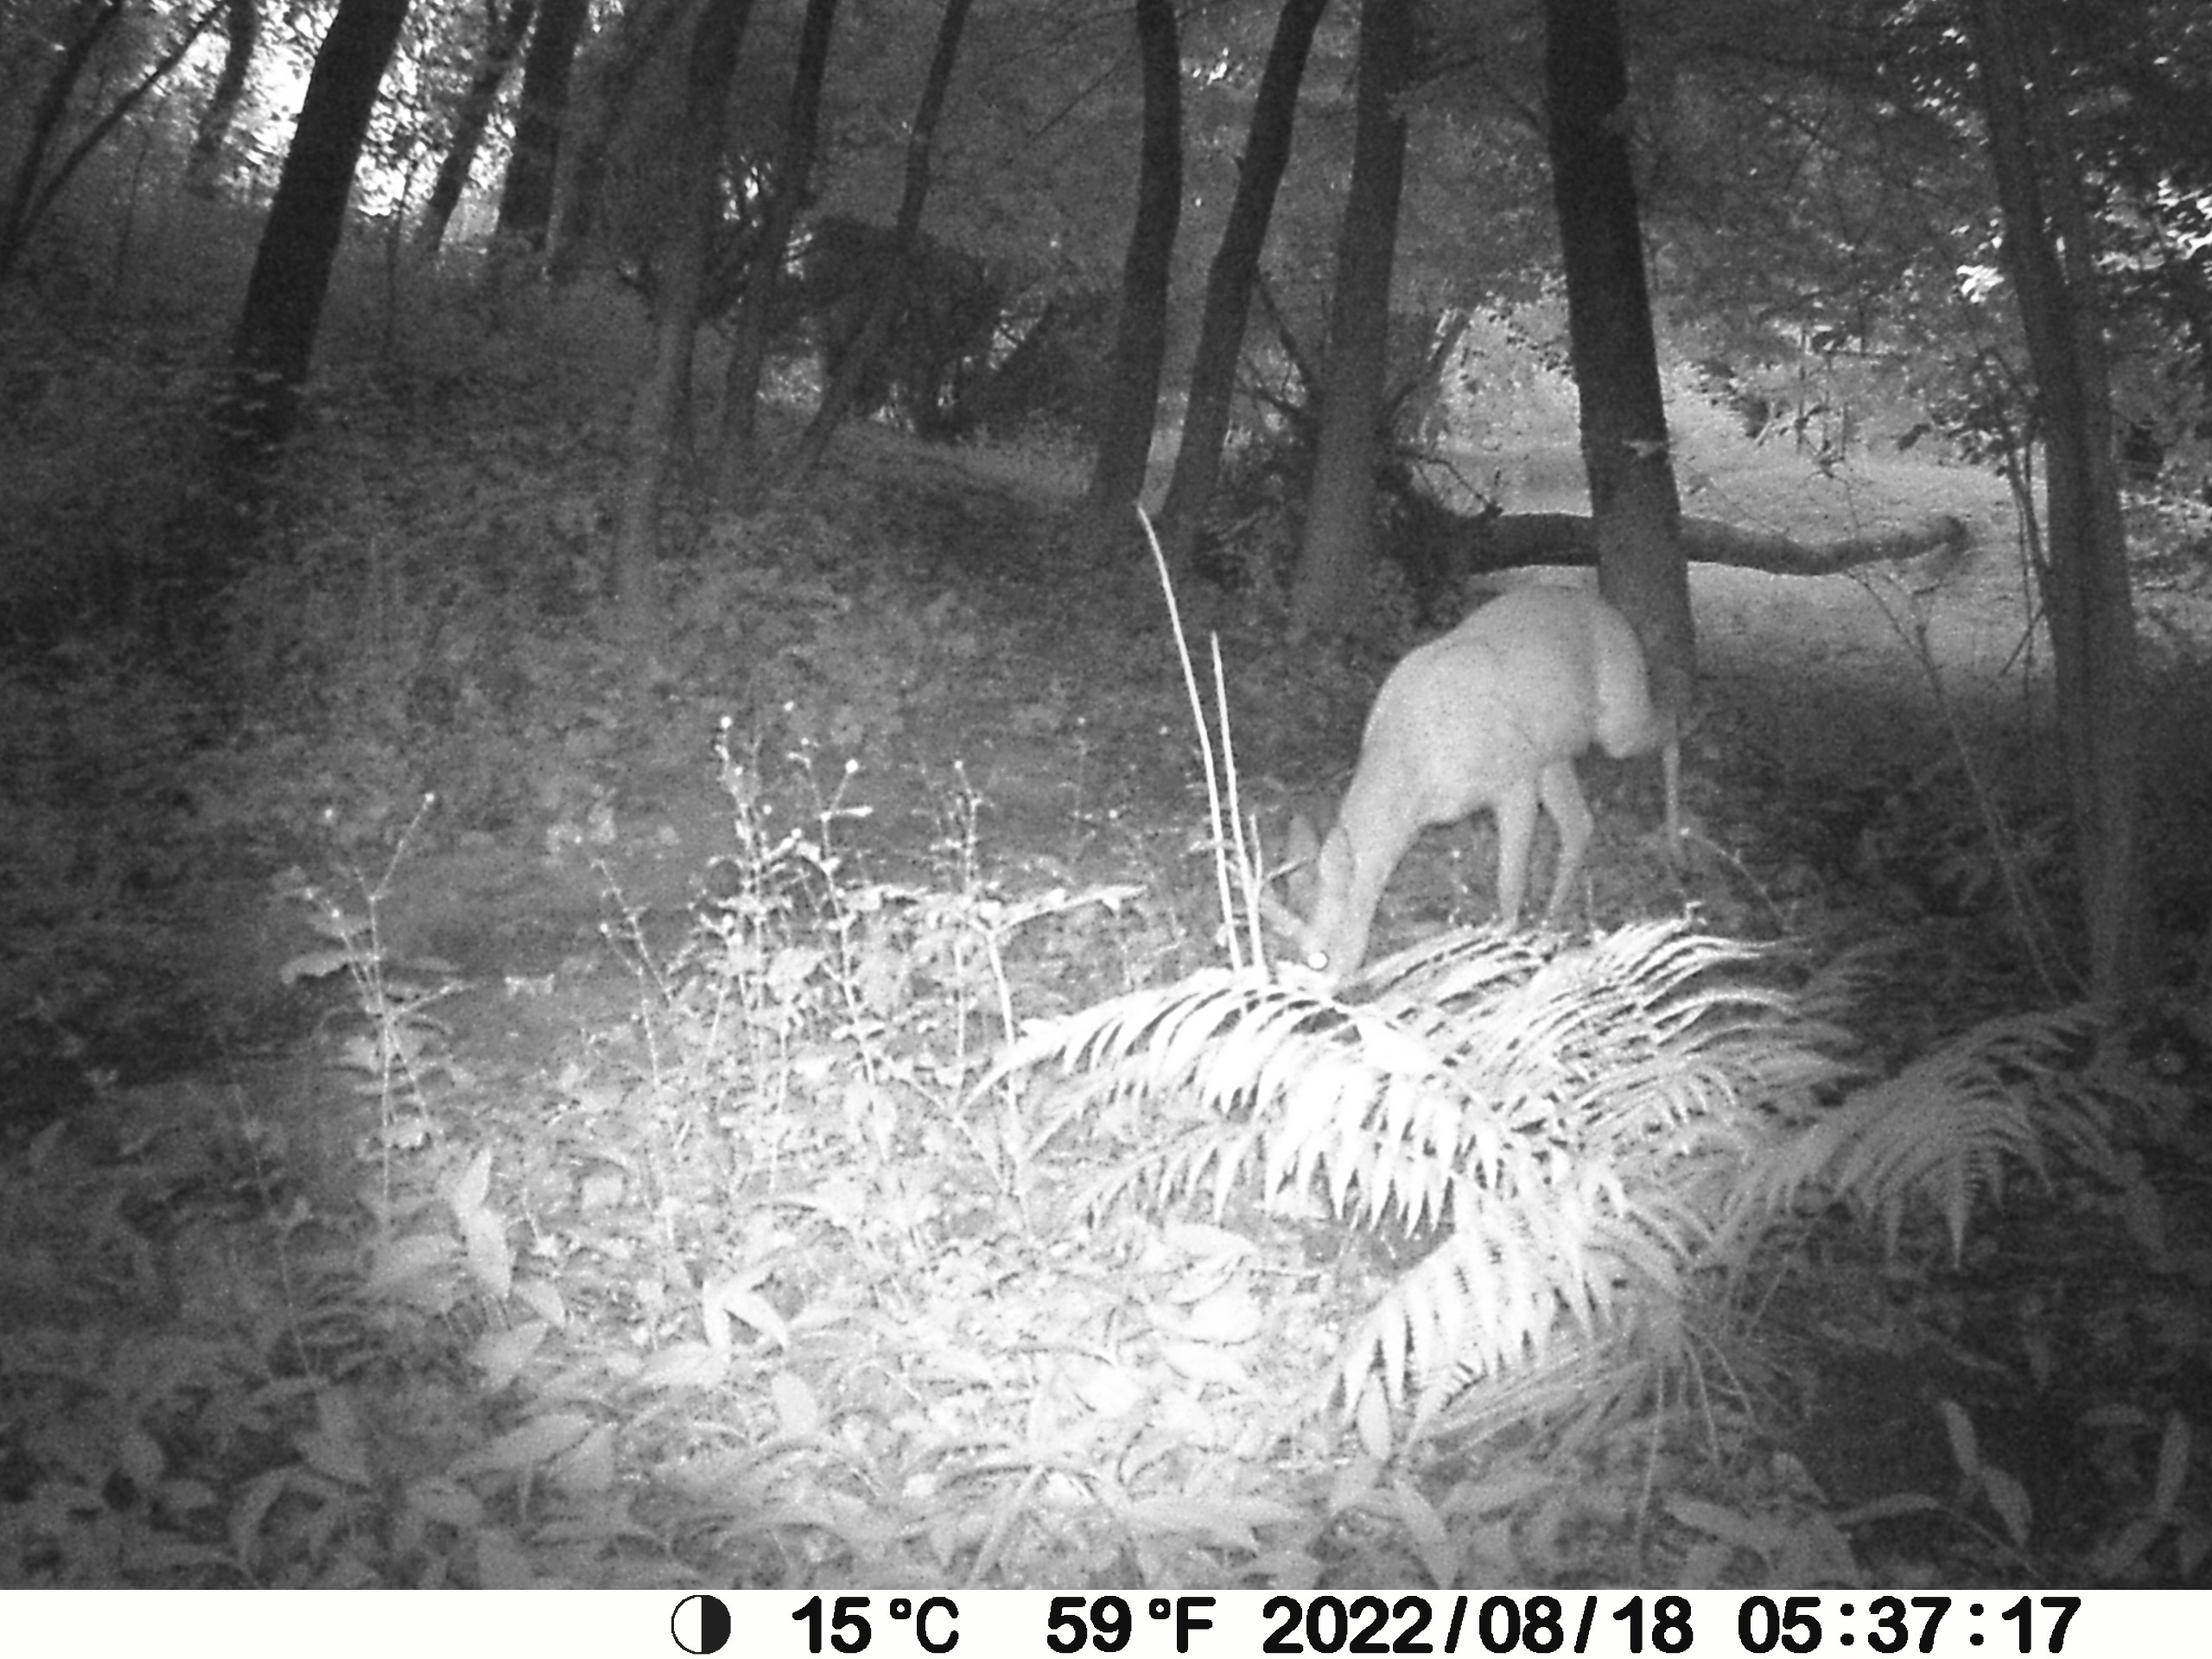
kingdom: Animalia
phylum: Chordata
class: Mammalia
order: Artiodactyla
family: Cervidae
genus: Capreolus
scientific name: Capreolus capreolus
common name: Rådyr
